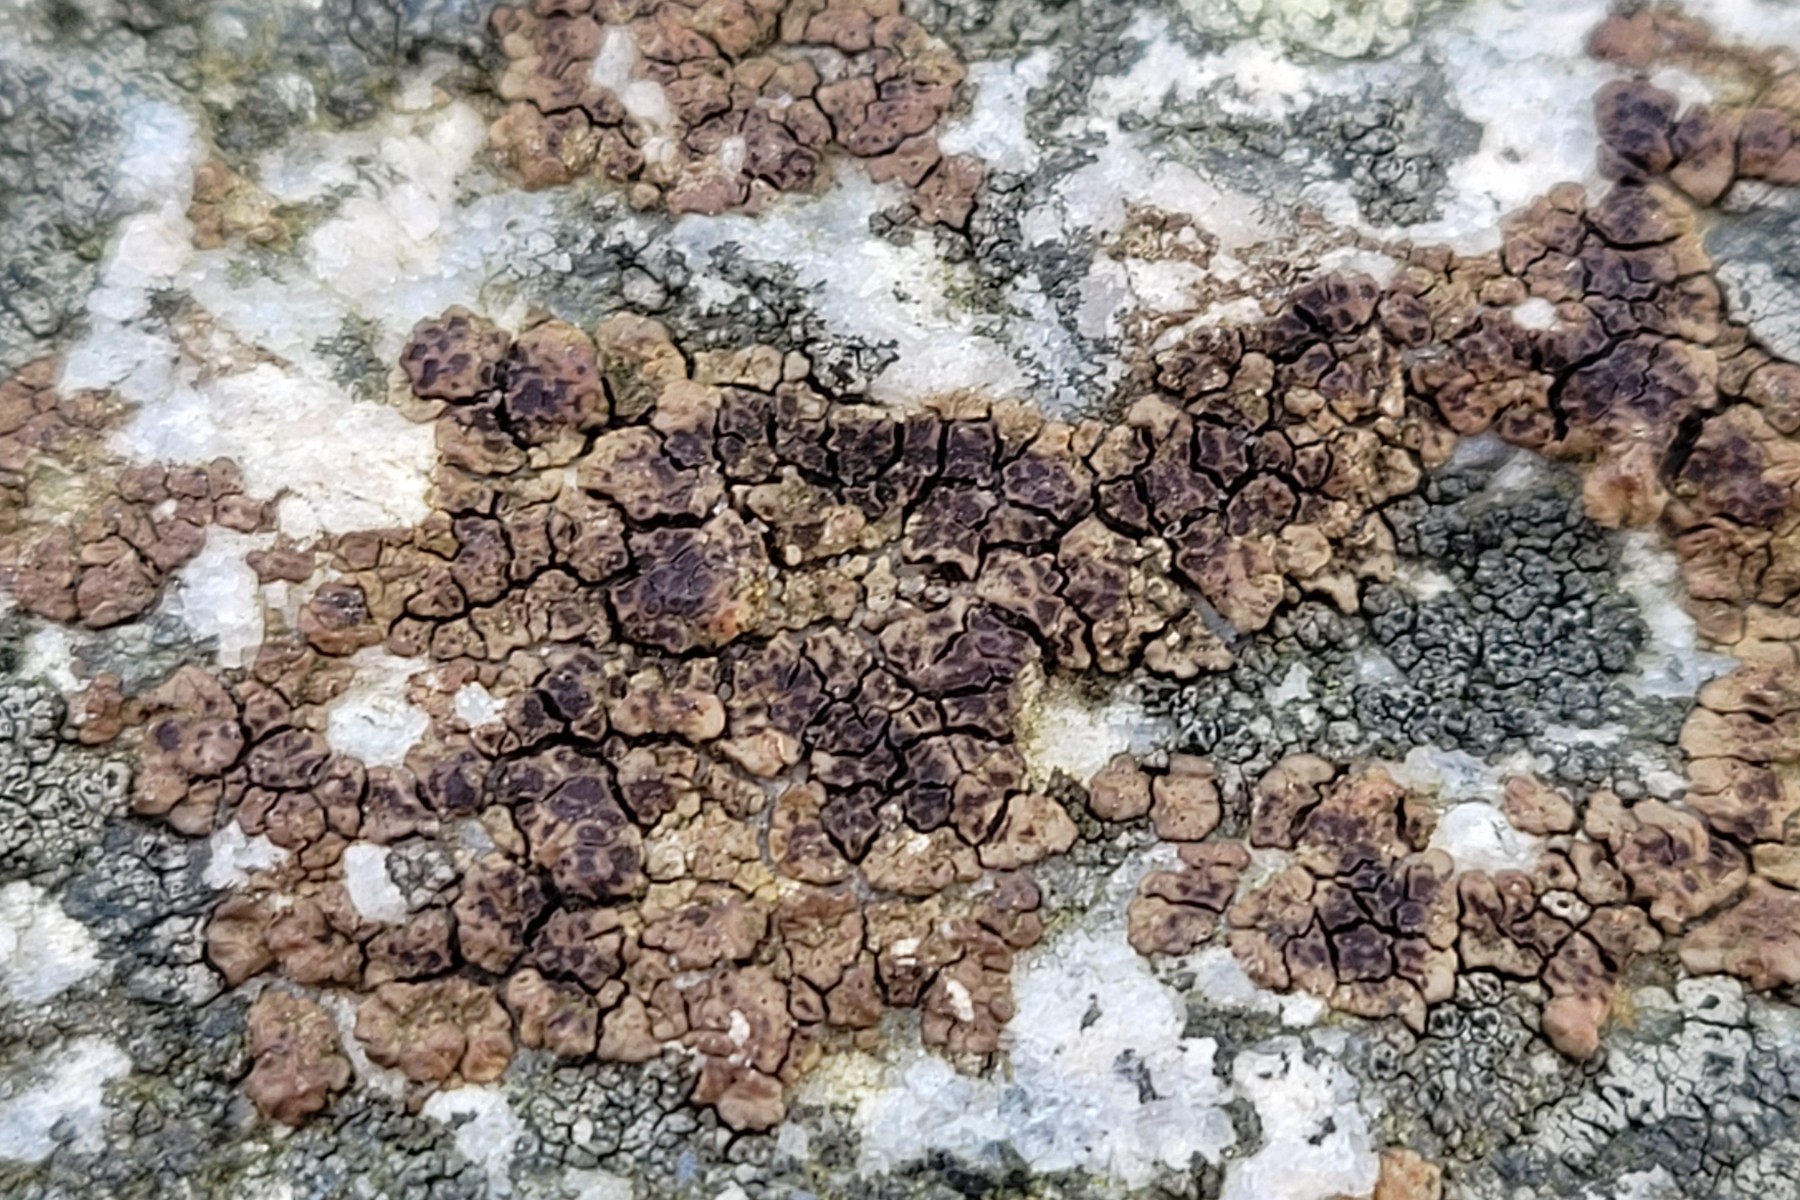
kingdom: Fungi
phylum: Ascomycota
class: Lecanoromycetes
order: Acarosporales
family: Acarosporaceae
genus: Acarospora
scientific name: Acarospora fuscata
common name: brun småsporelav
